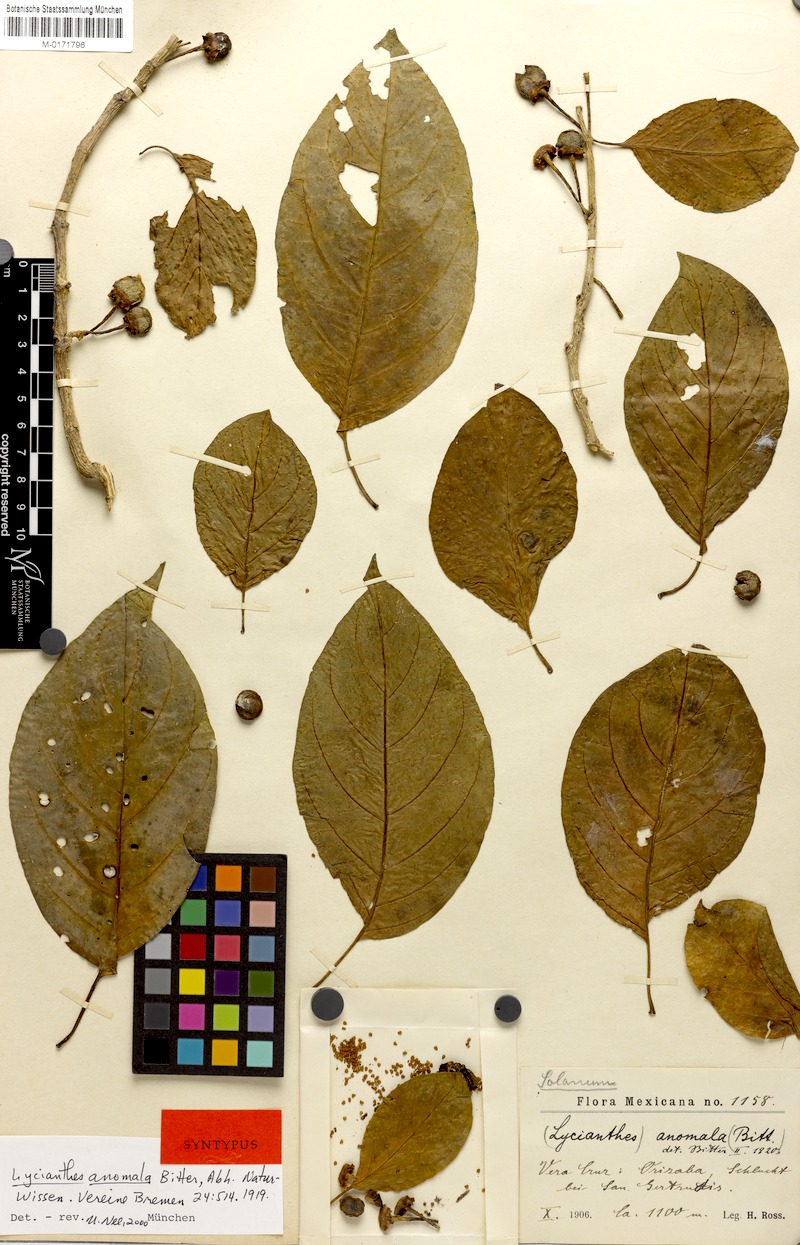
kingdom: Plantae
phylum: Tracheophyta
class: Magnoliopsida
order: Solanales
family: Solanaceae
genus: Lycianthes
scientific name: Lycianthes anomala
